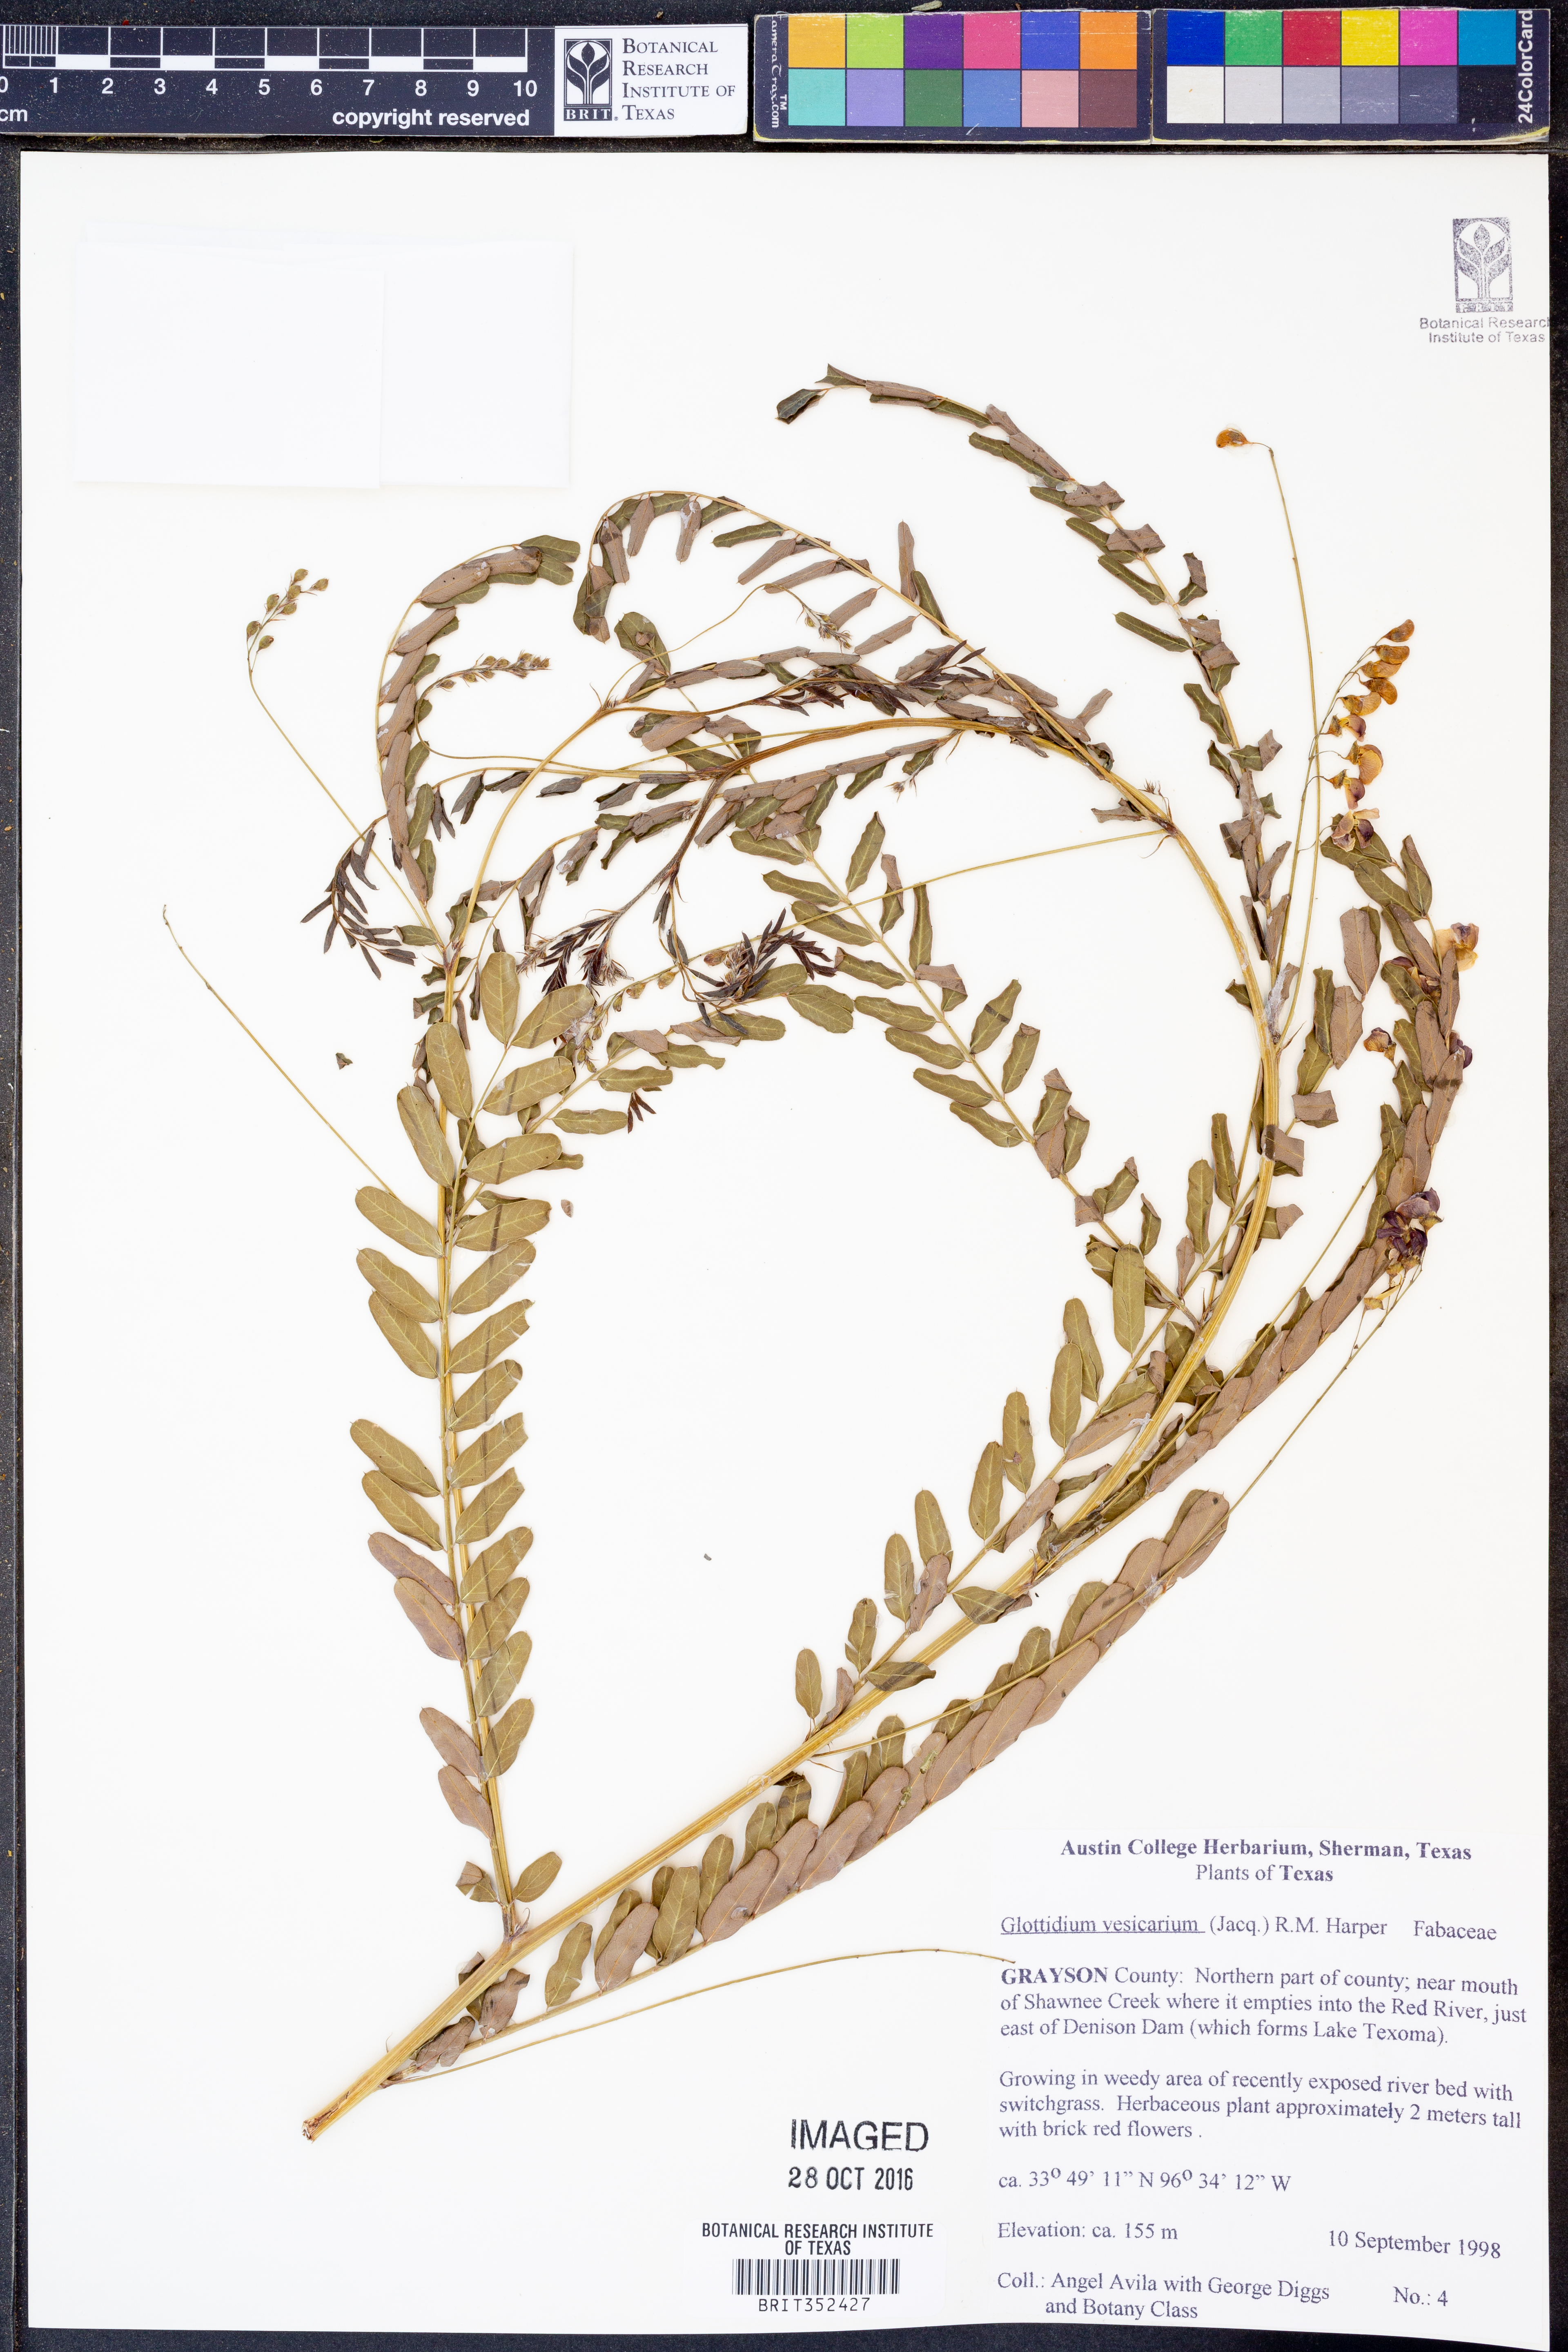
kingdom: Plantae
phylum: Tracheophyta
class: Magnoliopsida
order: Fabales
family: Fabaceae
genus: Sesbania
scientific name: Sesbania vesicaria
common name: Bagpod
